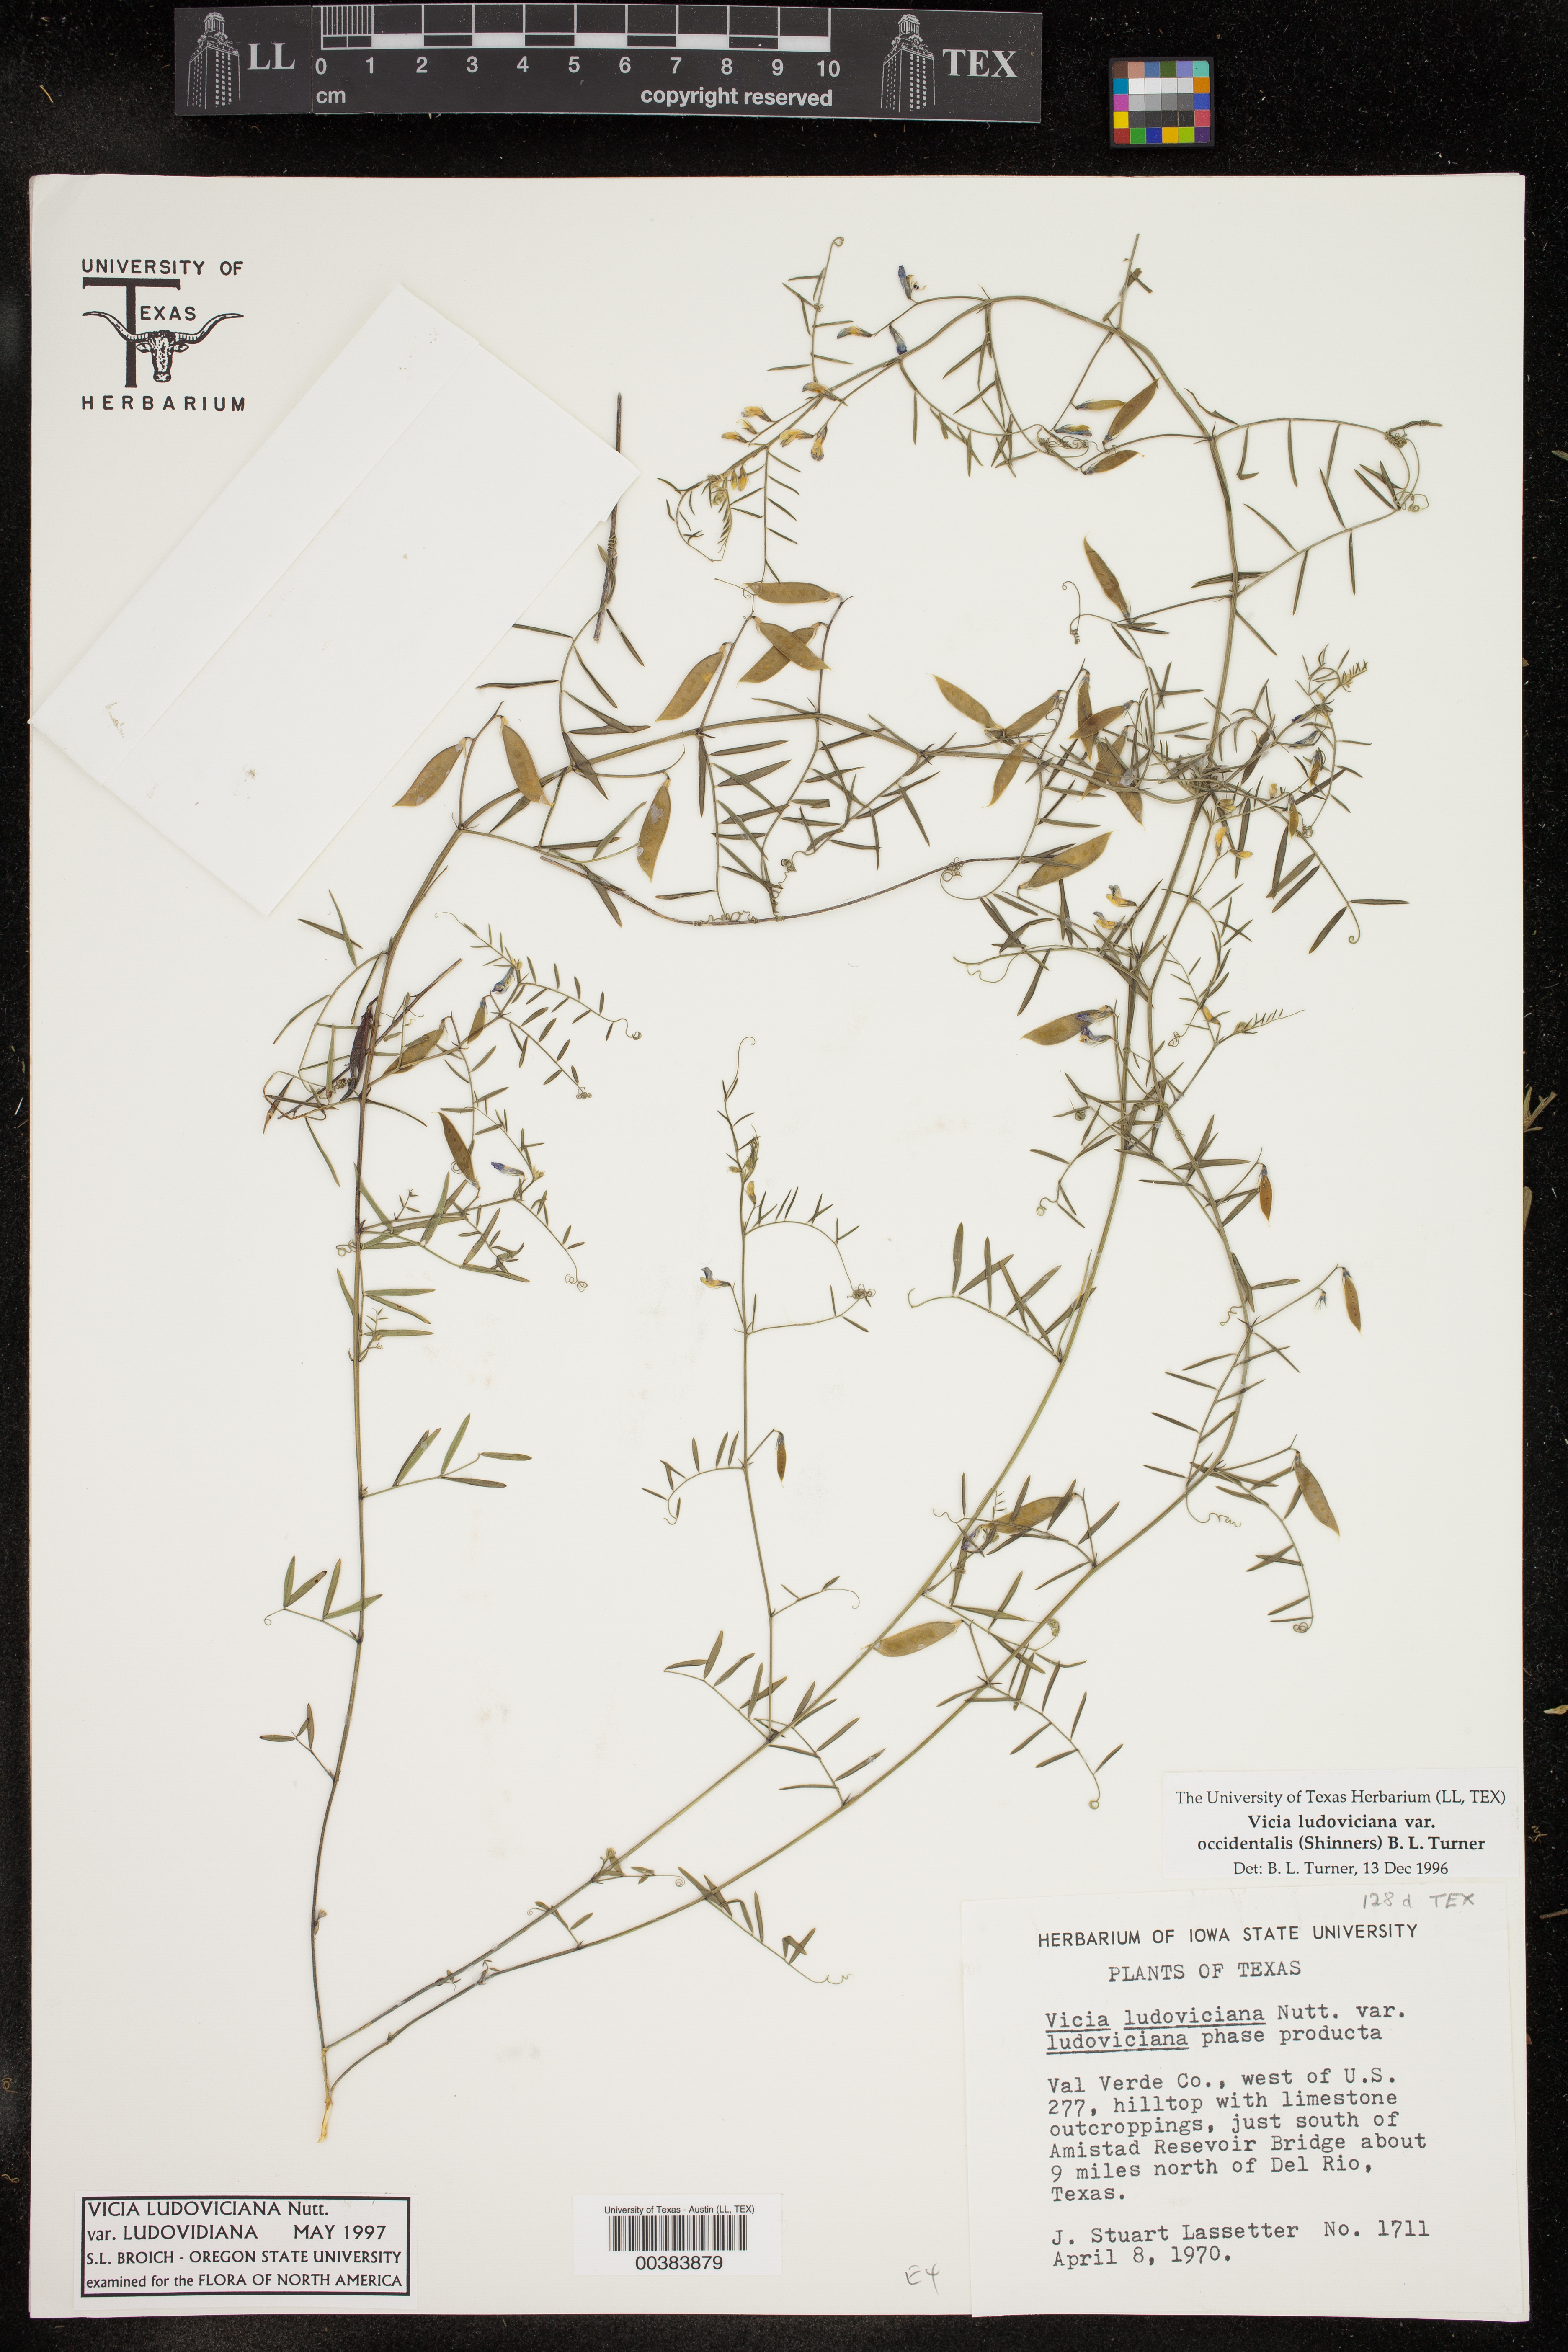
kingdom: Plantae
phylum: Tracheophyta
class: Magnoliopsida
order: Fabales
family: Fabaceae
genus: Vicia
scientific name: Vicia ludoviciana
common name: Louisiana vetch
